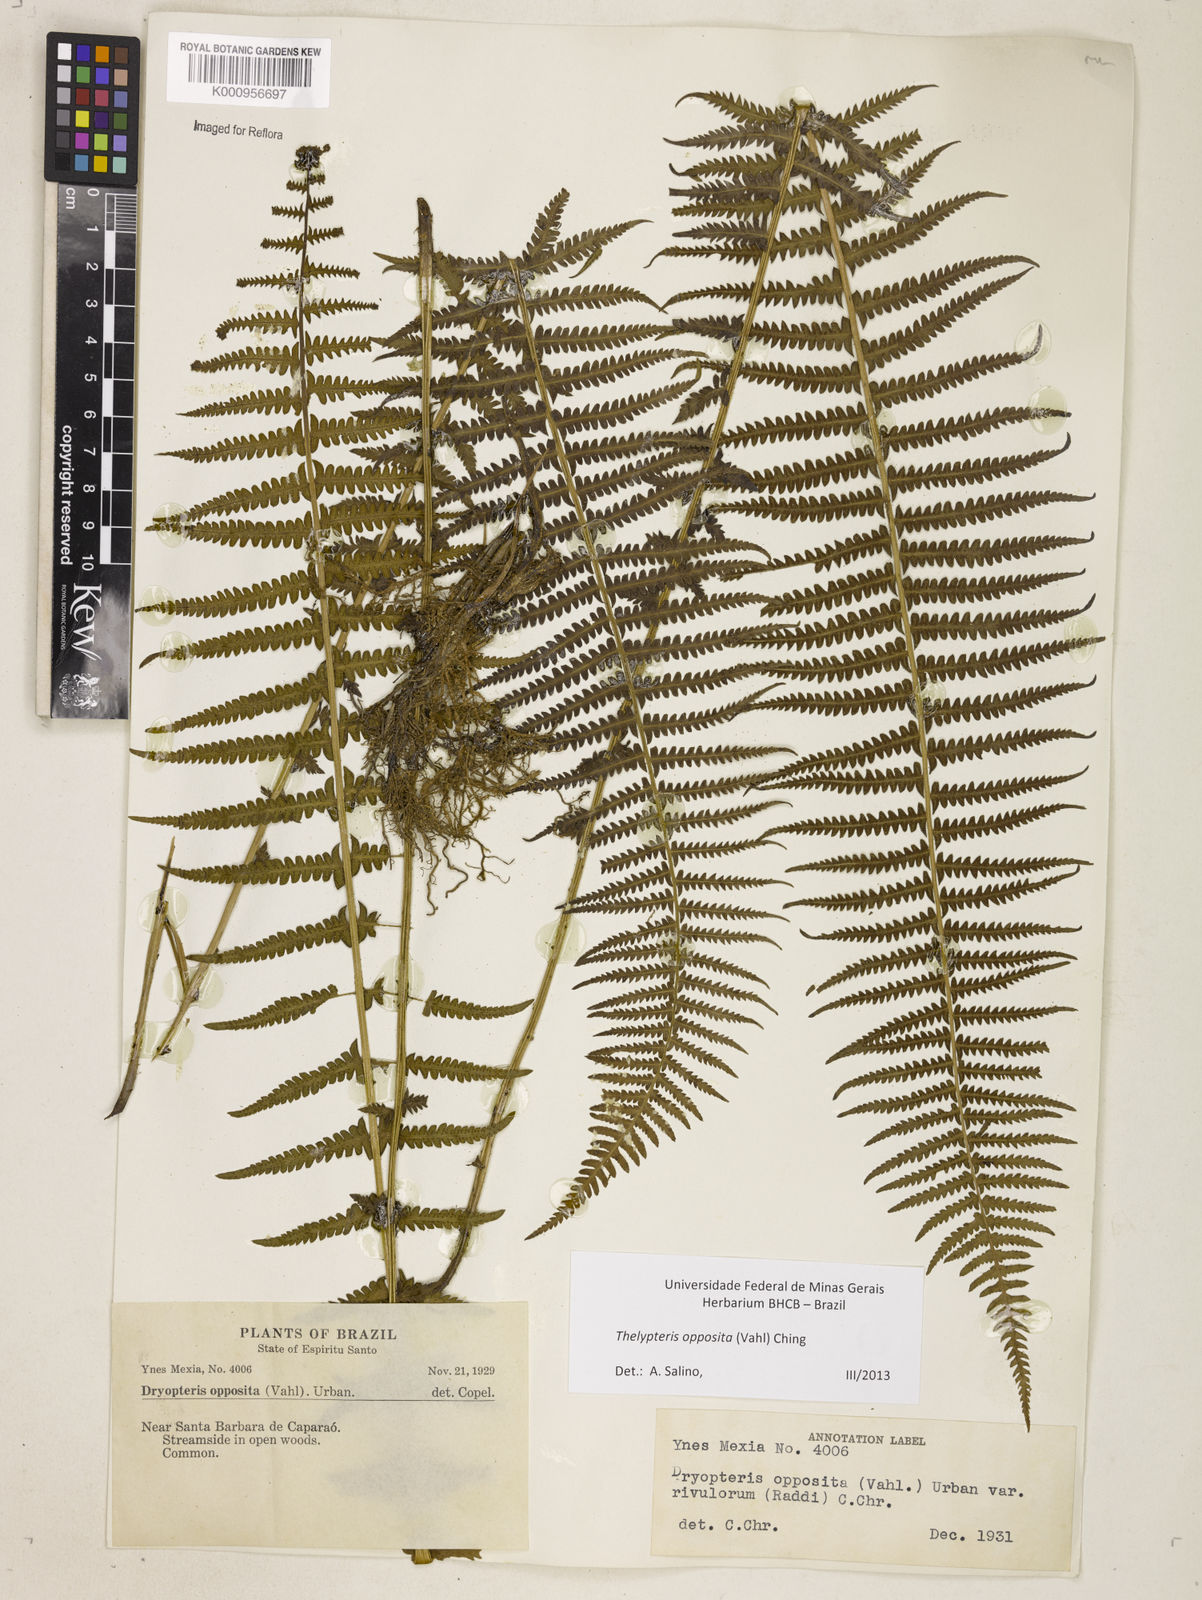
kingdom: Plantae
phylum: Tracheophyta
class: Polypodiopsida
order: Polypodiales
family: Thelypteridaceae
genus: Amauropelta
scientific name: Amauropelta opposita
